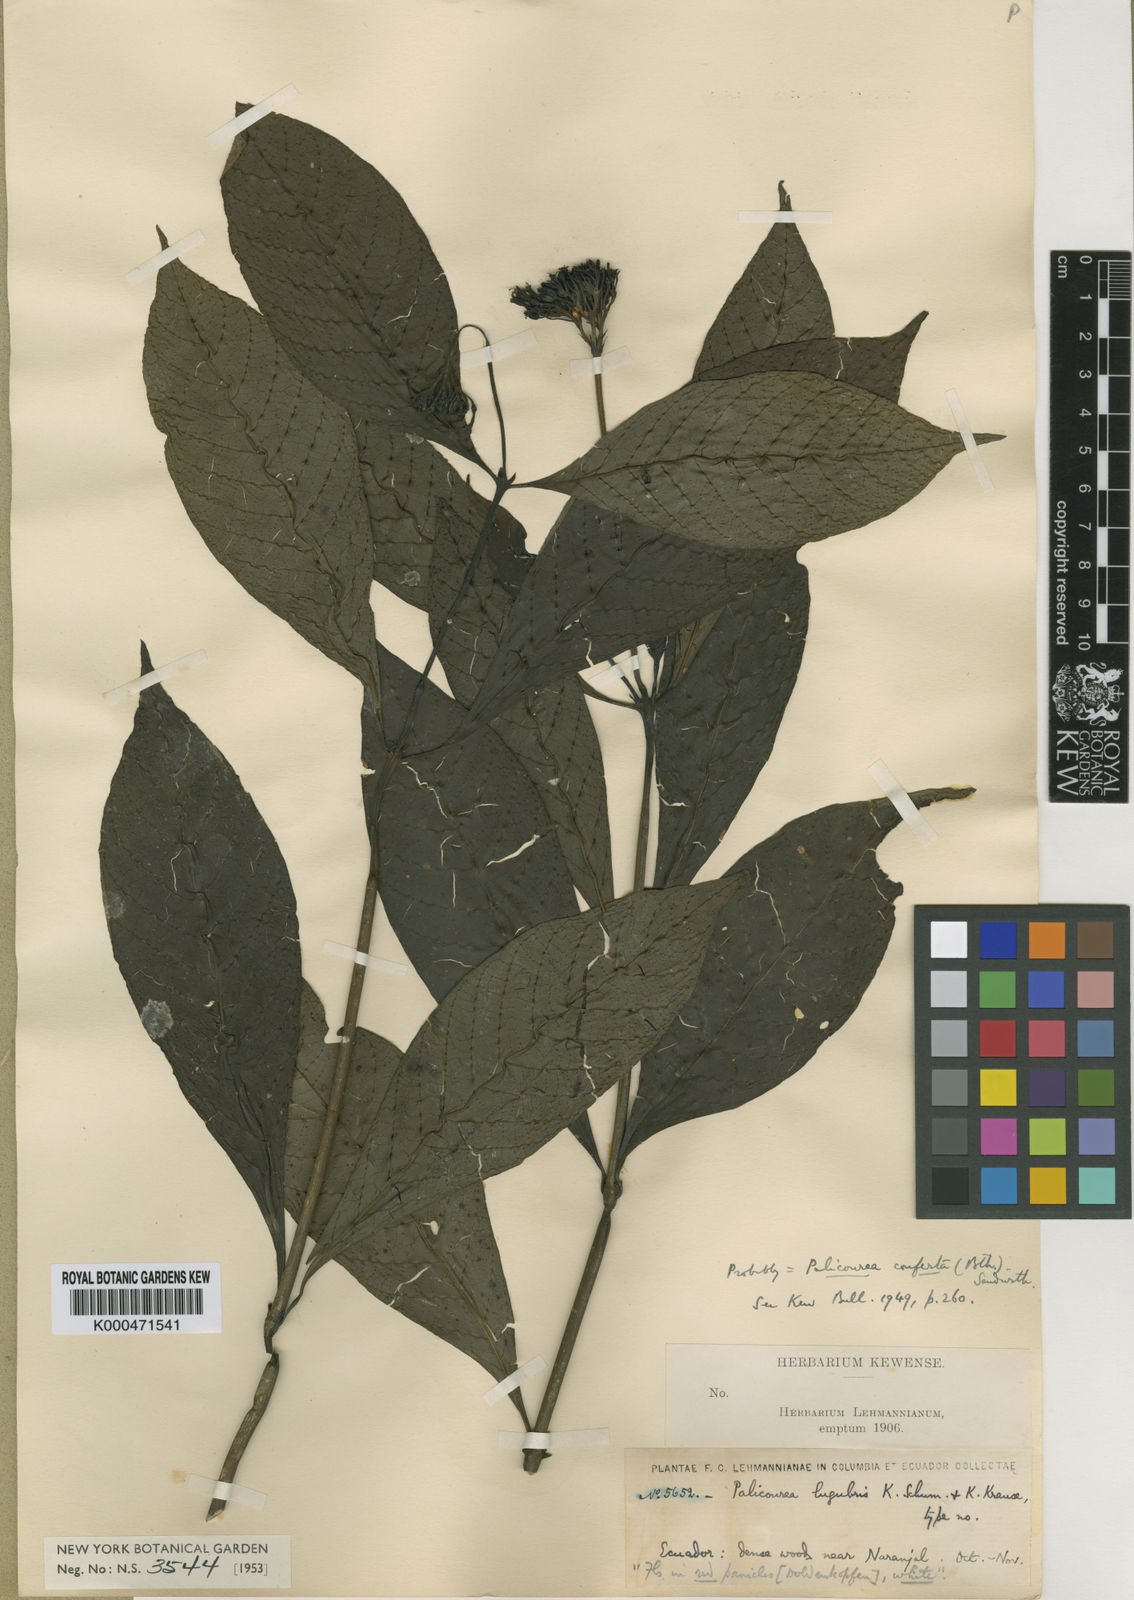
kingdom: Plantae
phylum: Tracheophyta
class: Magnoliopsida
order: Gentianales
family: Rubiaceae
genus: Palicourea
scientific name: Palicourea conferta
